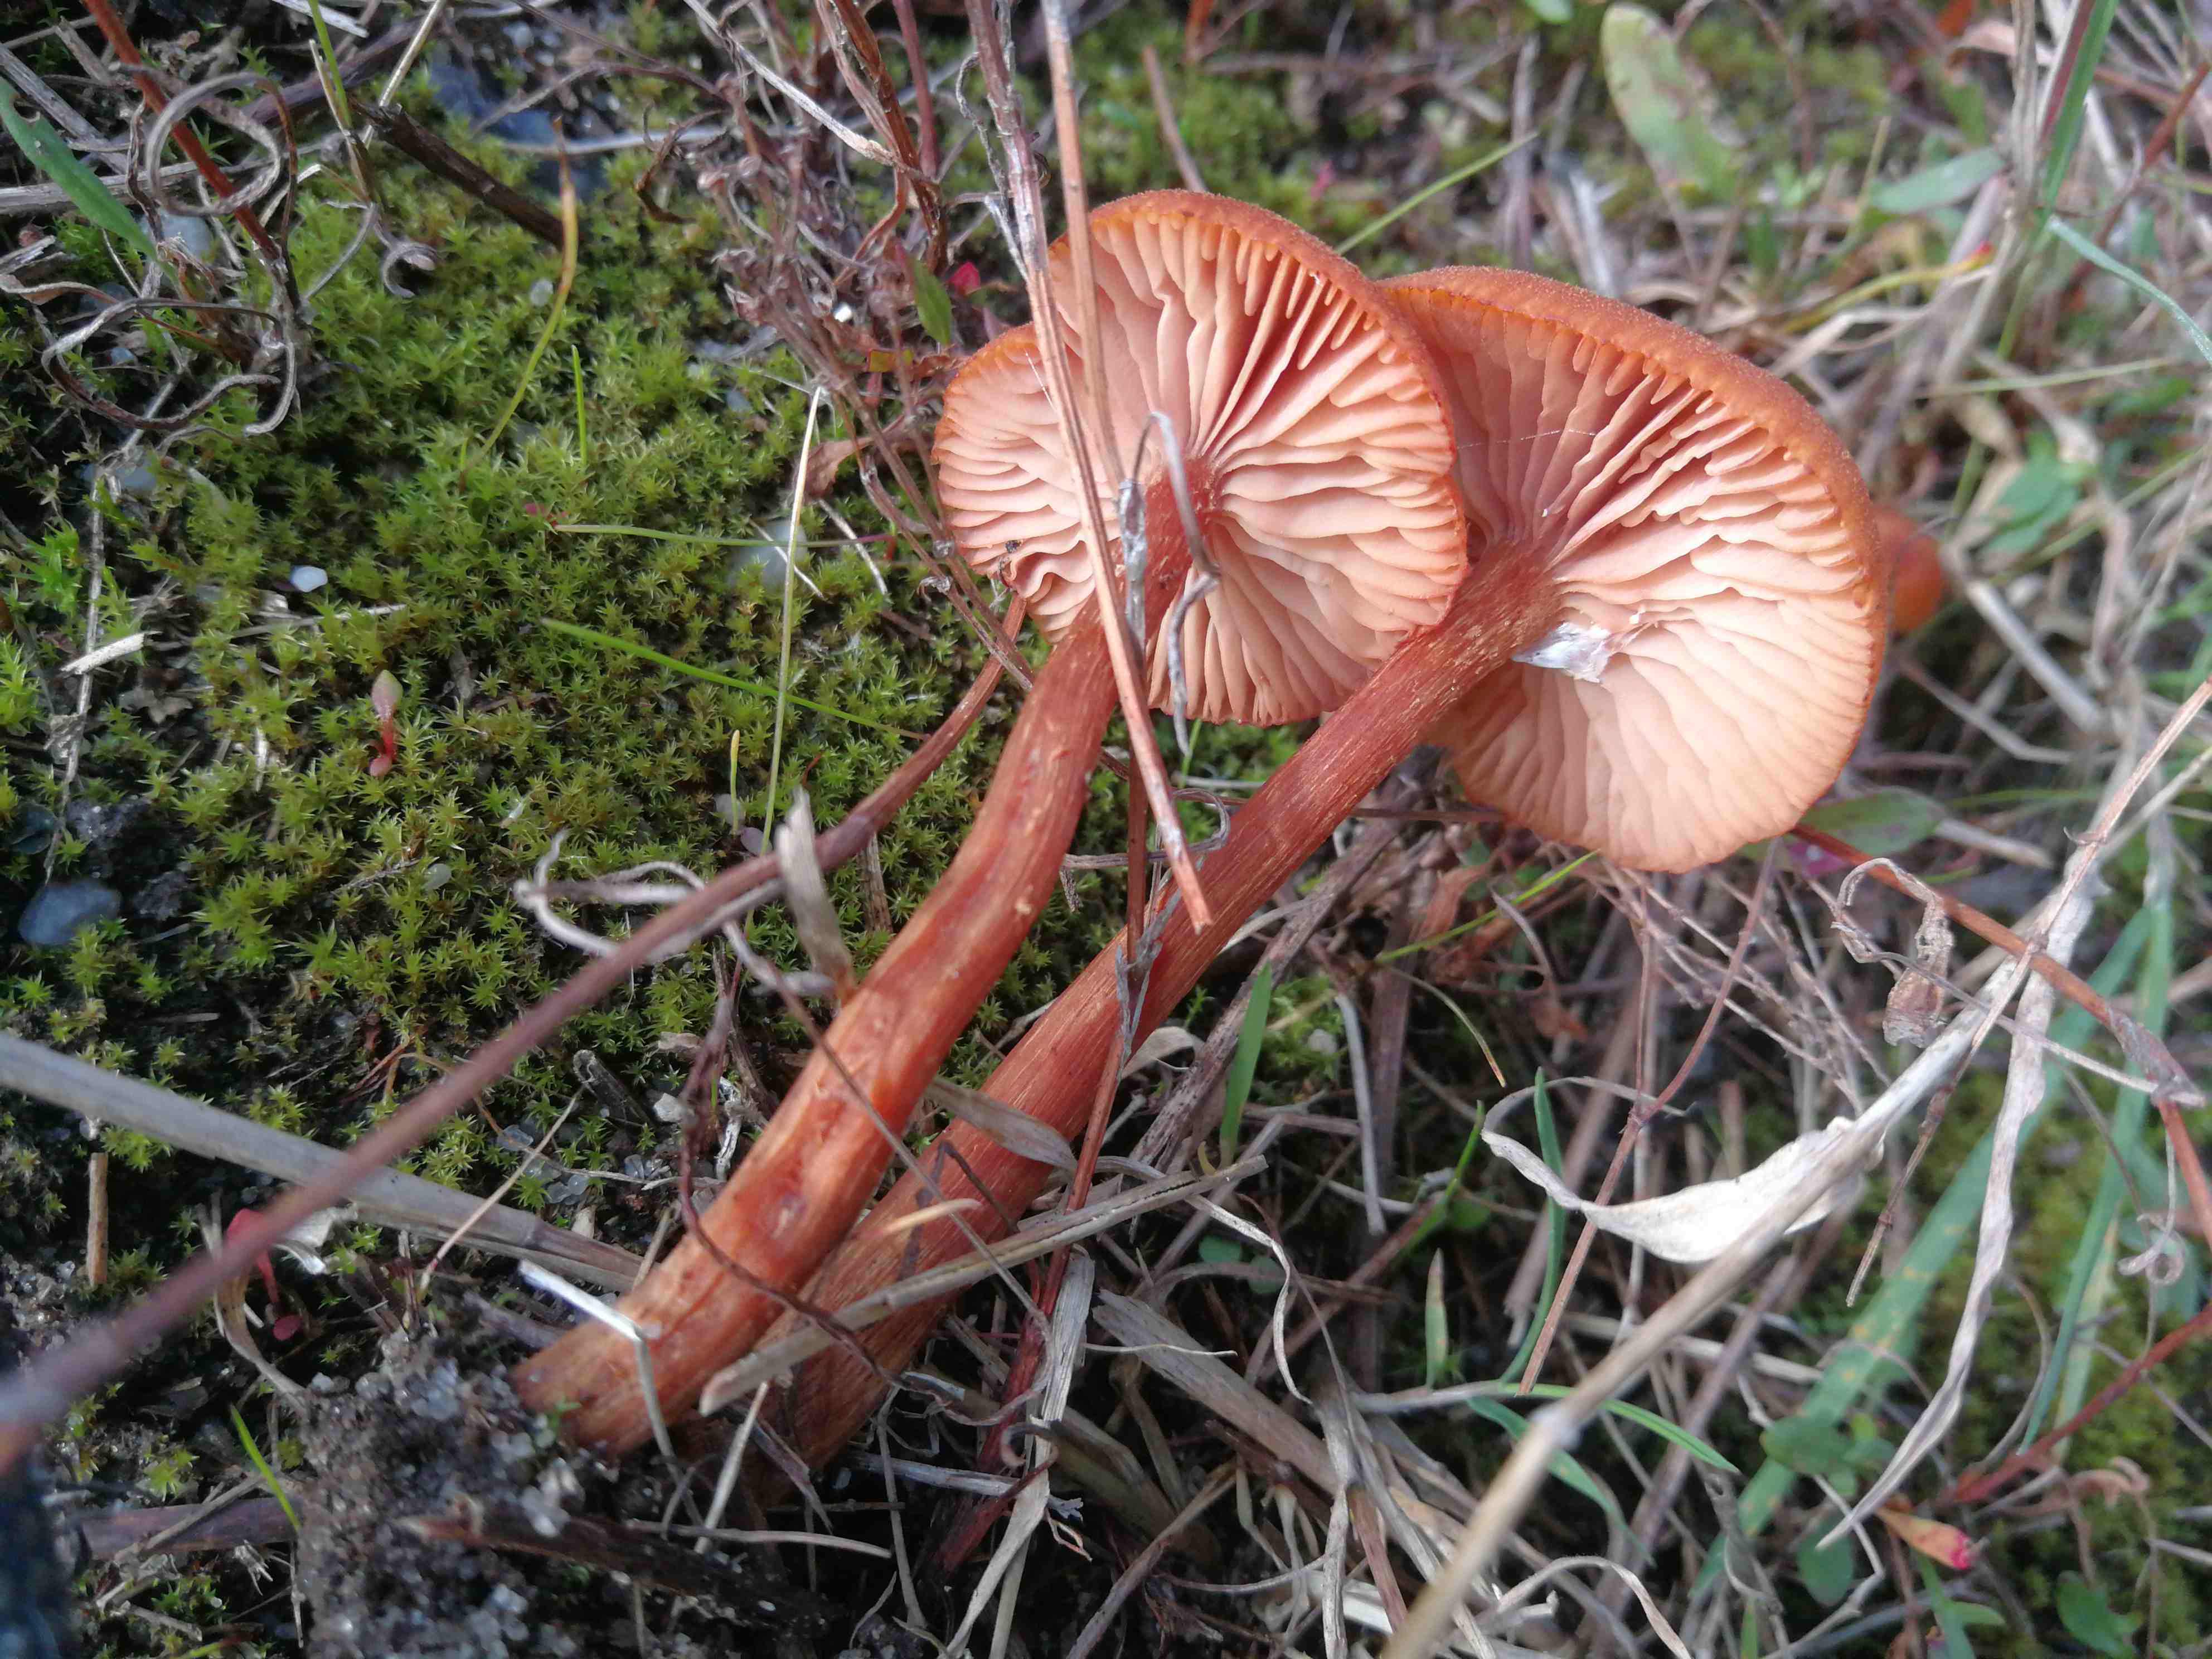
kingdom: Fungi
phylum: Basidiomycota
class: Agaricomycetes
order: Agaricales
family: Hydnangiaceae
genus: Laccaria
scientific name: Laccaria proxima
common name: stor ametysthat
